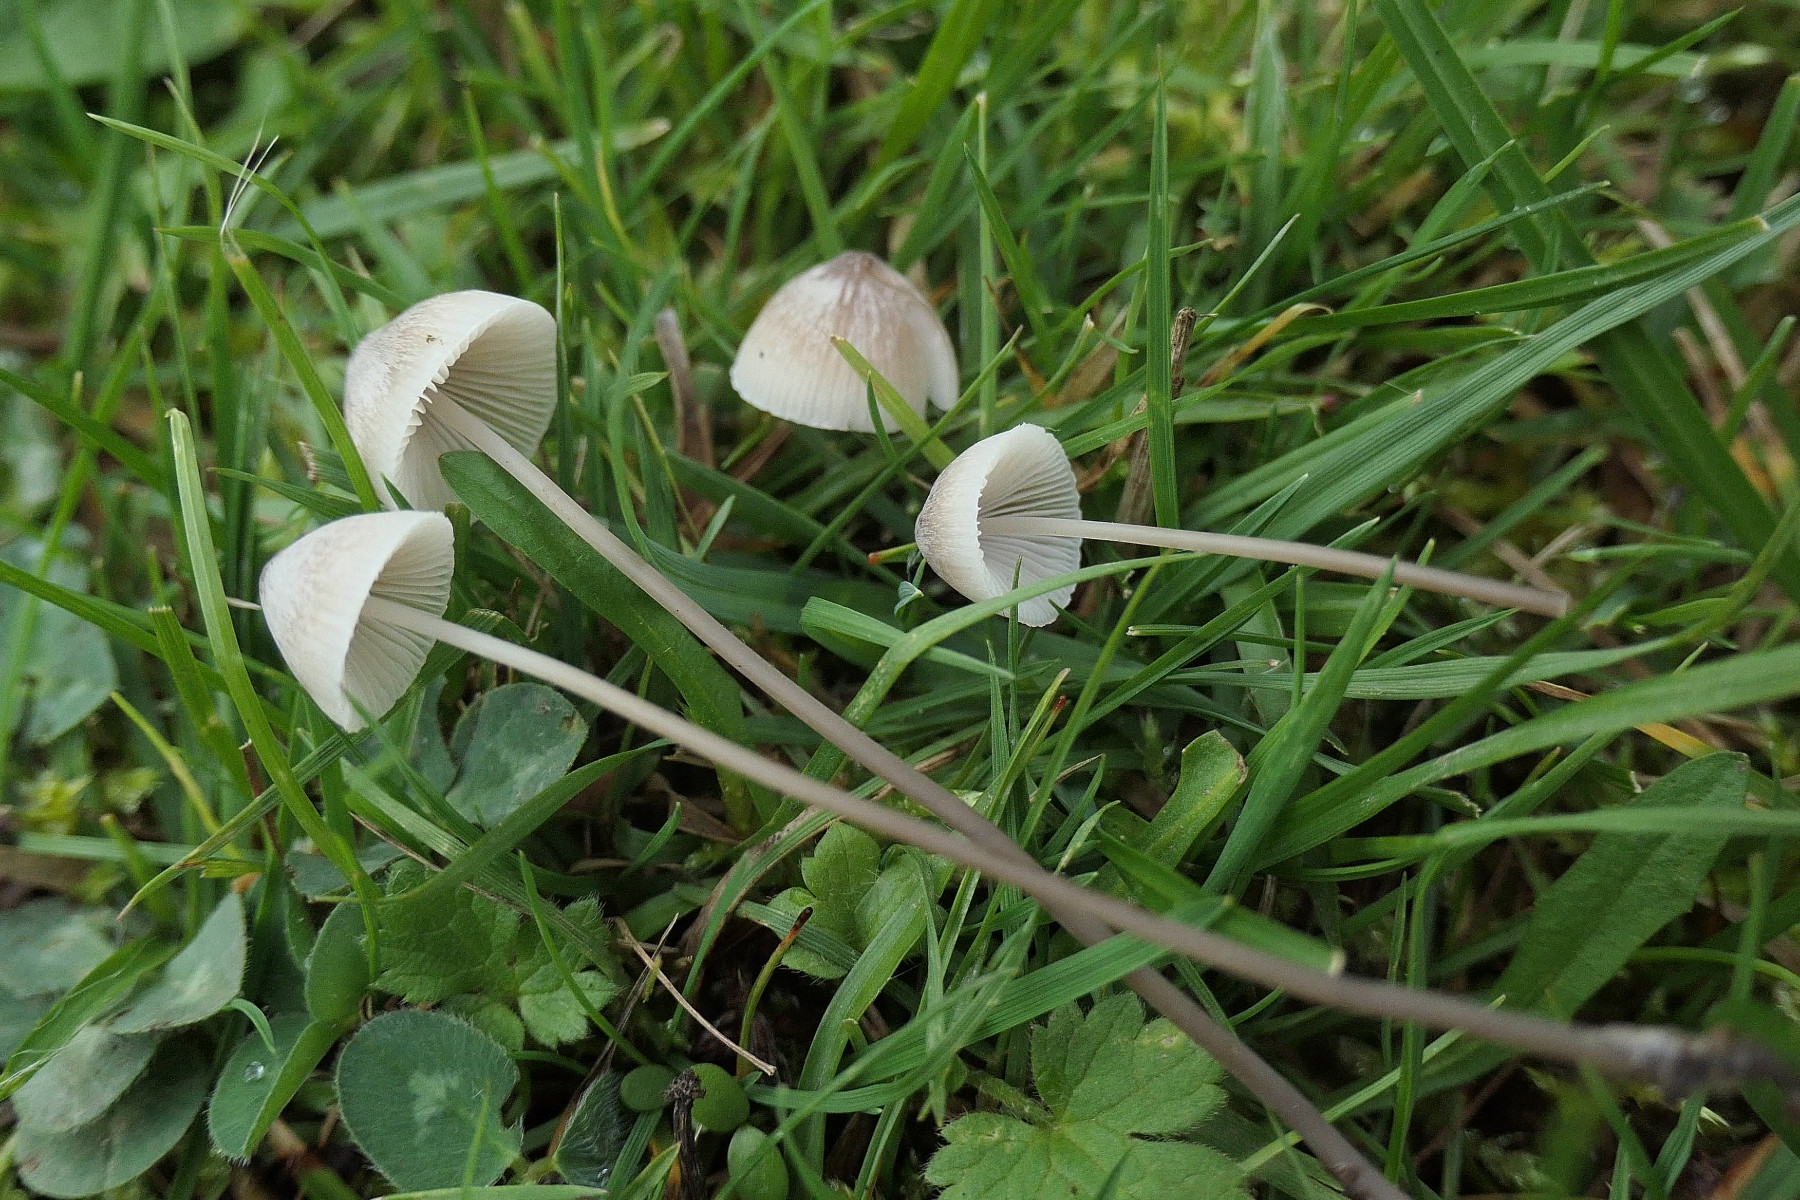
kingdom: Fungi
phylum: Basidiomycota
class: Agaricomycetes
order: Agaricales
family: Mycenaceae
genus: Mycena
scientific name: Mycena filopes
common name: jod-huesvamp
